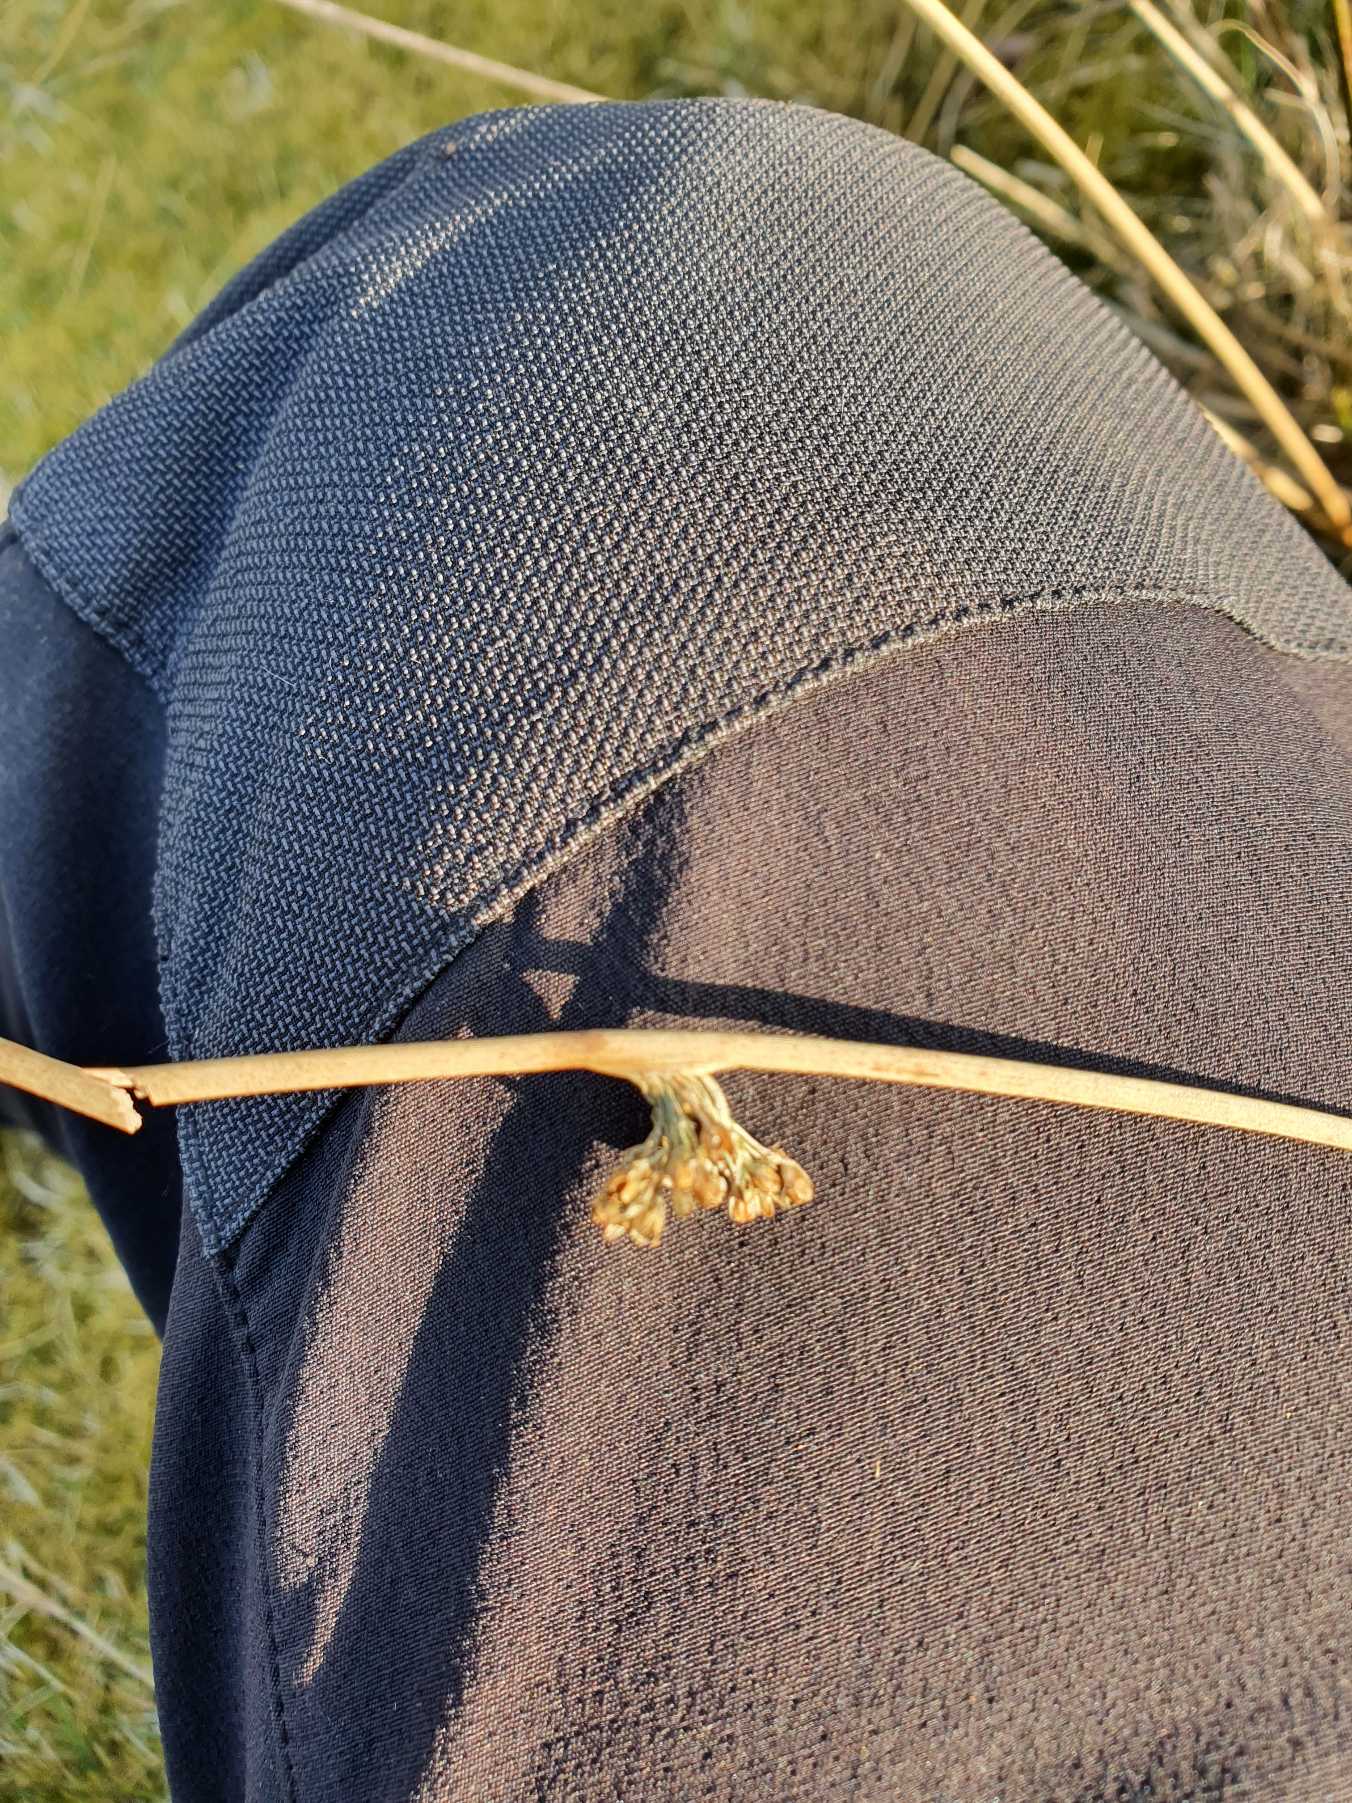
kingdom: Plantae
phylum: Tracheophyta
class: Liliopsida
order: Poales
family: Juncaceae
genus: Juncus
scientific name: Juncus effusus
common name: Lyse-siv
